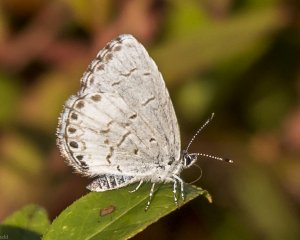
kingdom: Animalia
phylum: Arthropoda
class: Insecta
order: Lepidoptera
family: Lycaenidae
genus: Cyaniris
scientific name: Cyaniris neglecta
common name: Summer Azure
